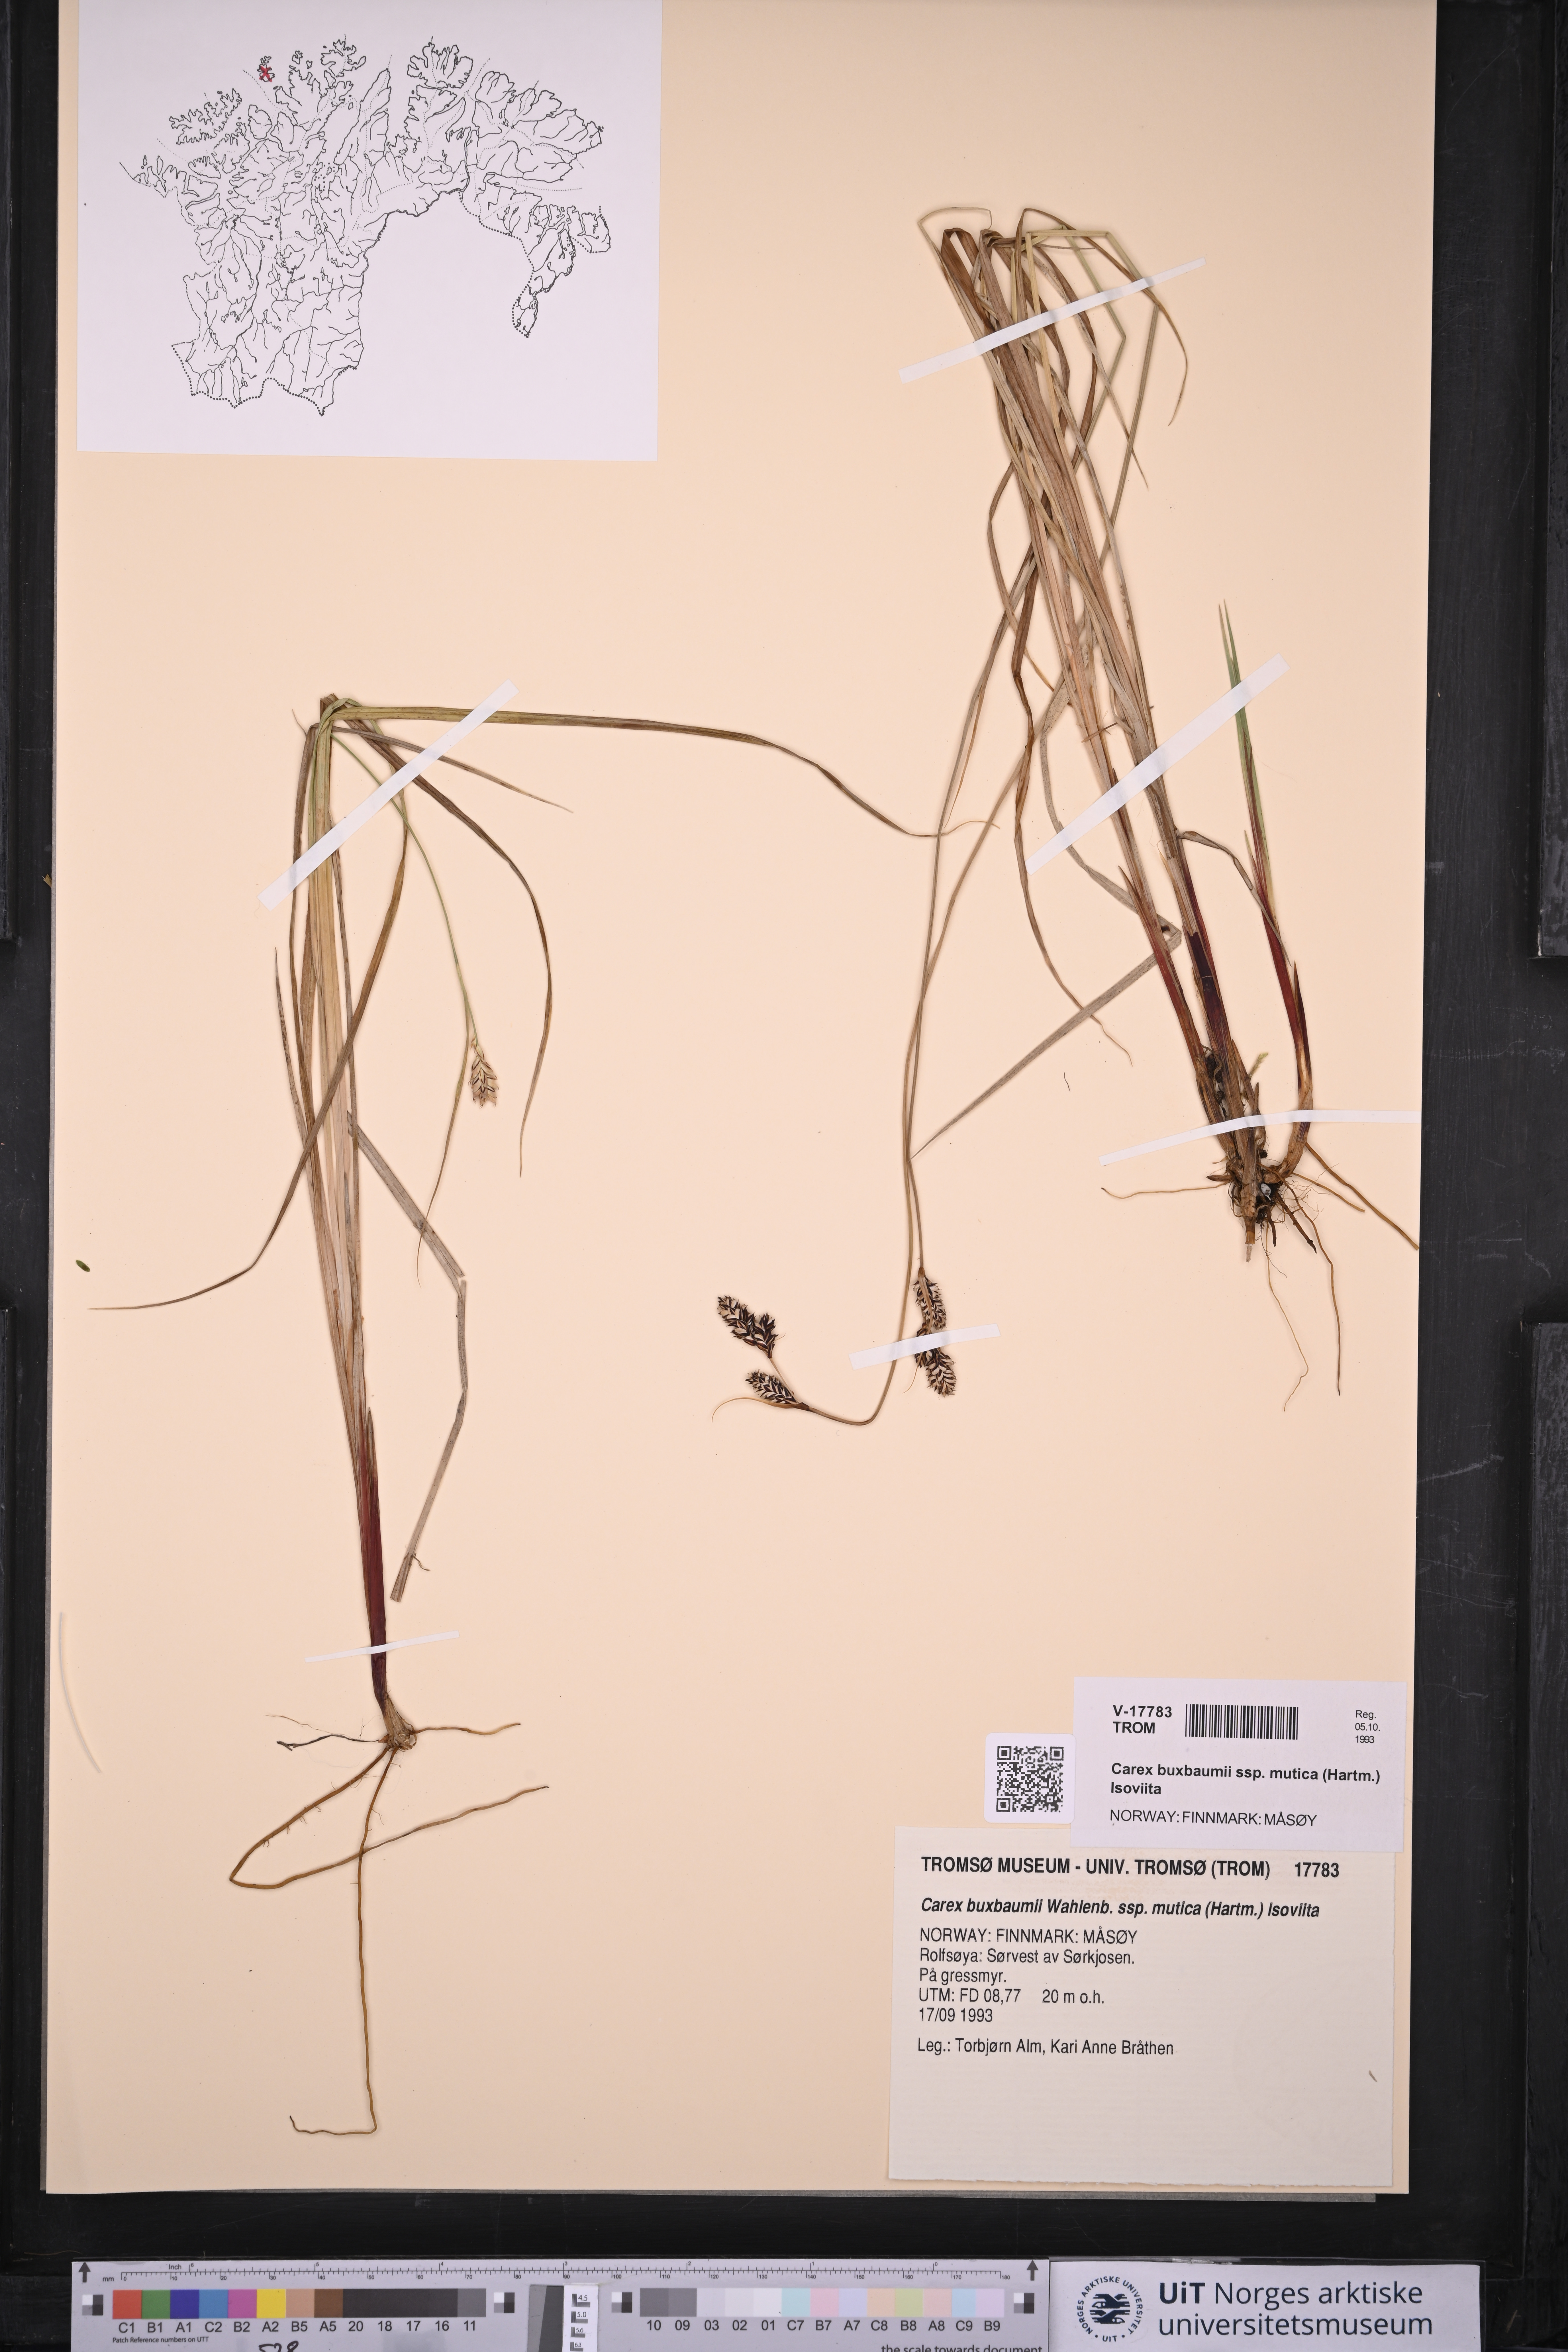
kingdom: Plantae
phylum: Tracheophyta
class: Liliopsida
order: Poales
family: Cyperaceae
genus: Carex
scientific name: Carex adelostoma
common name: Circumpolar sedge
